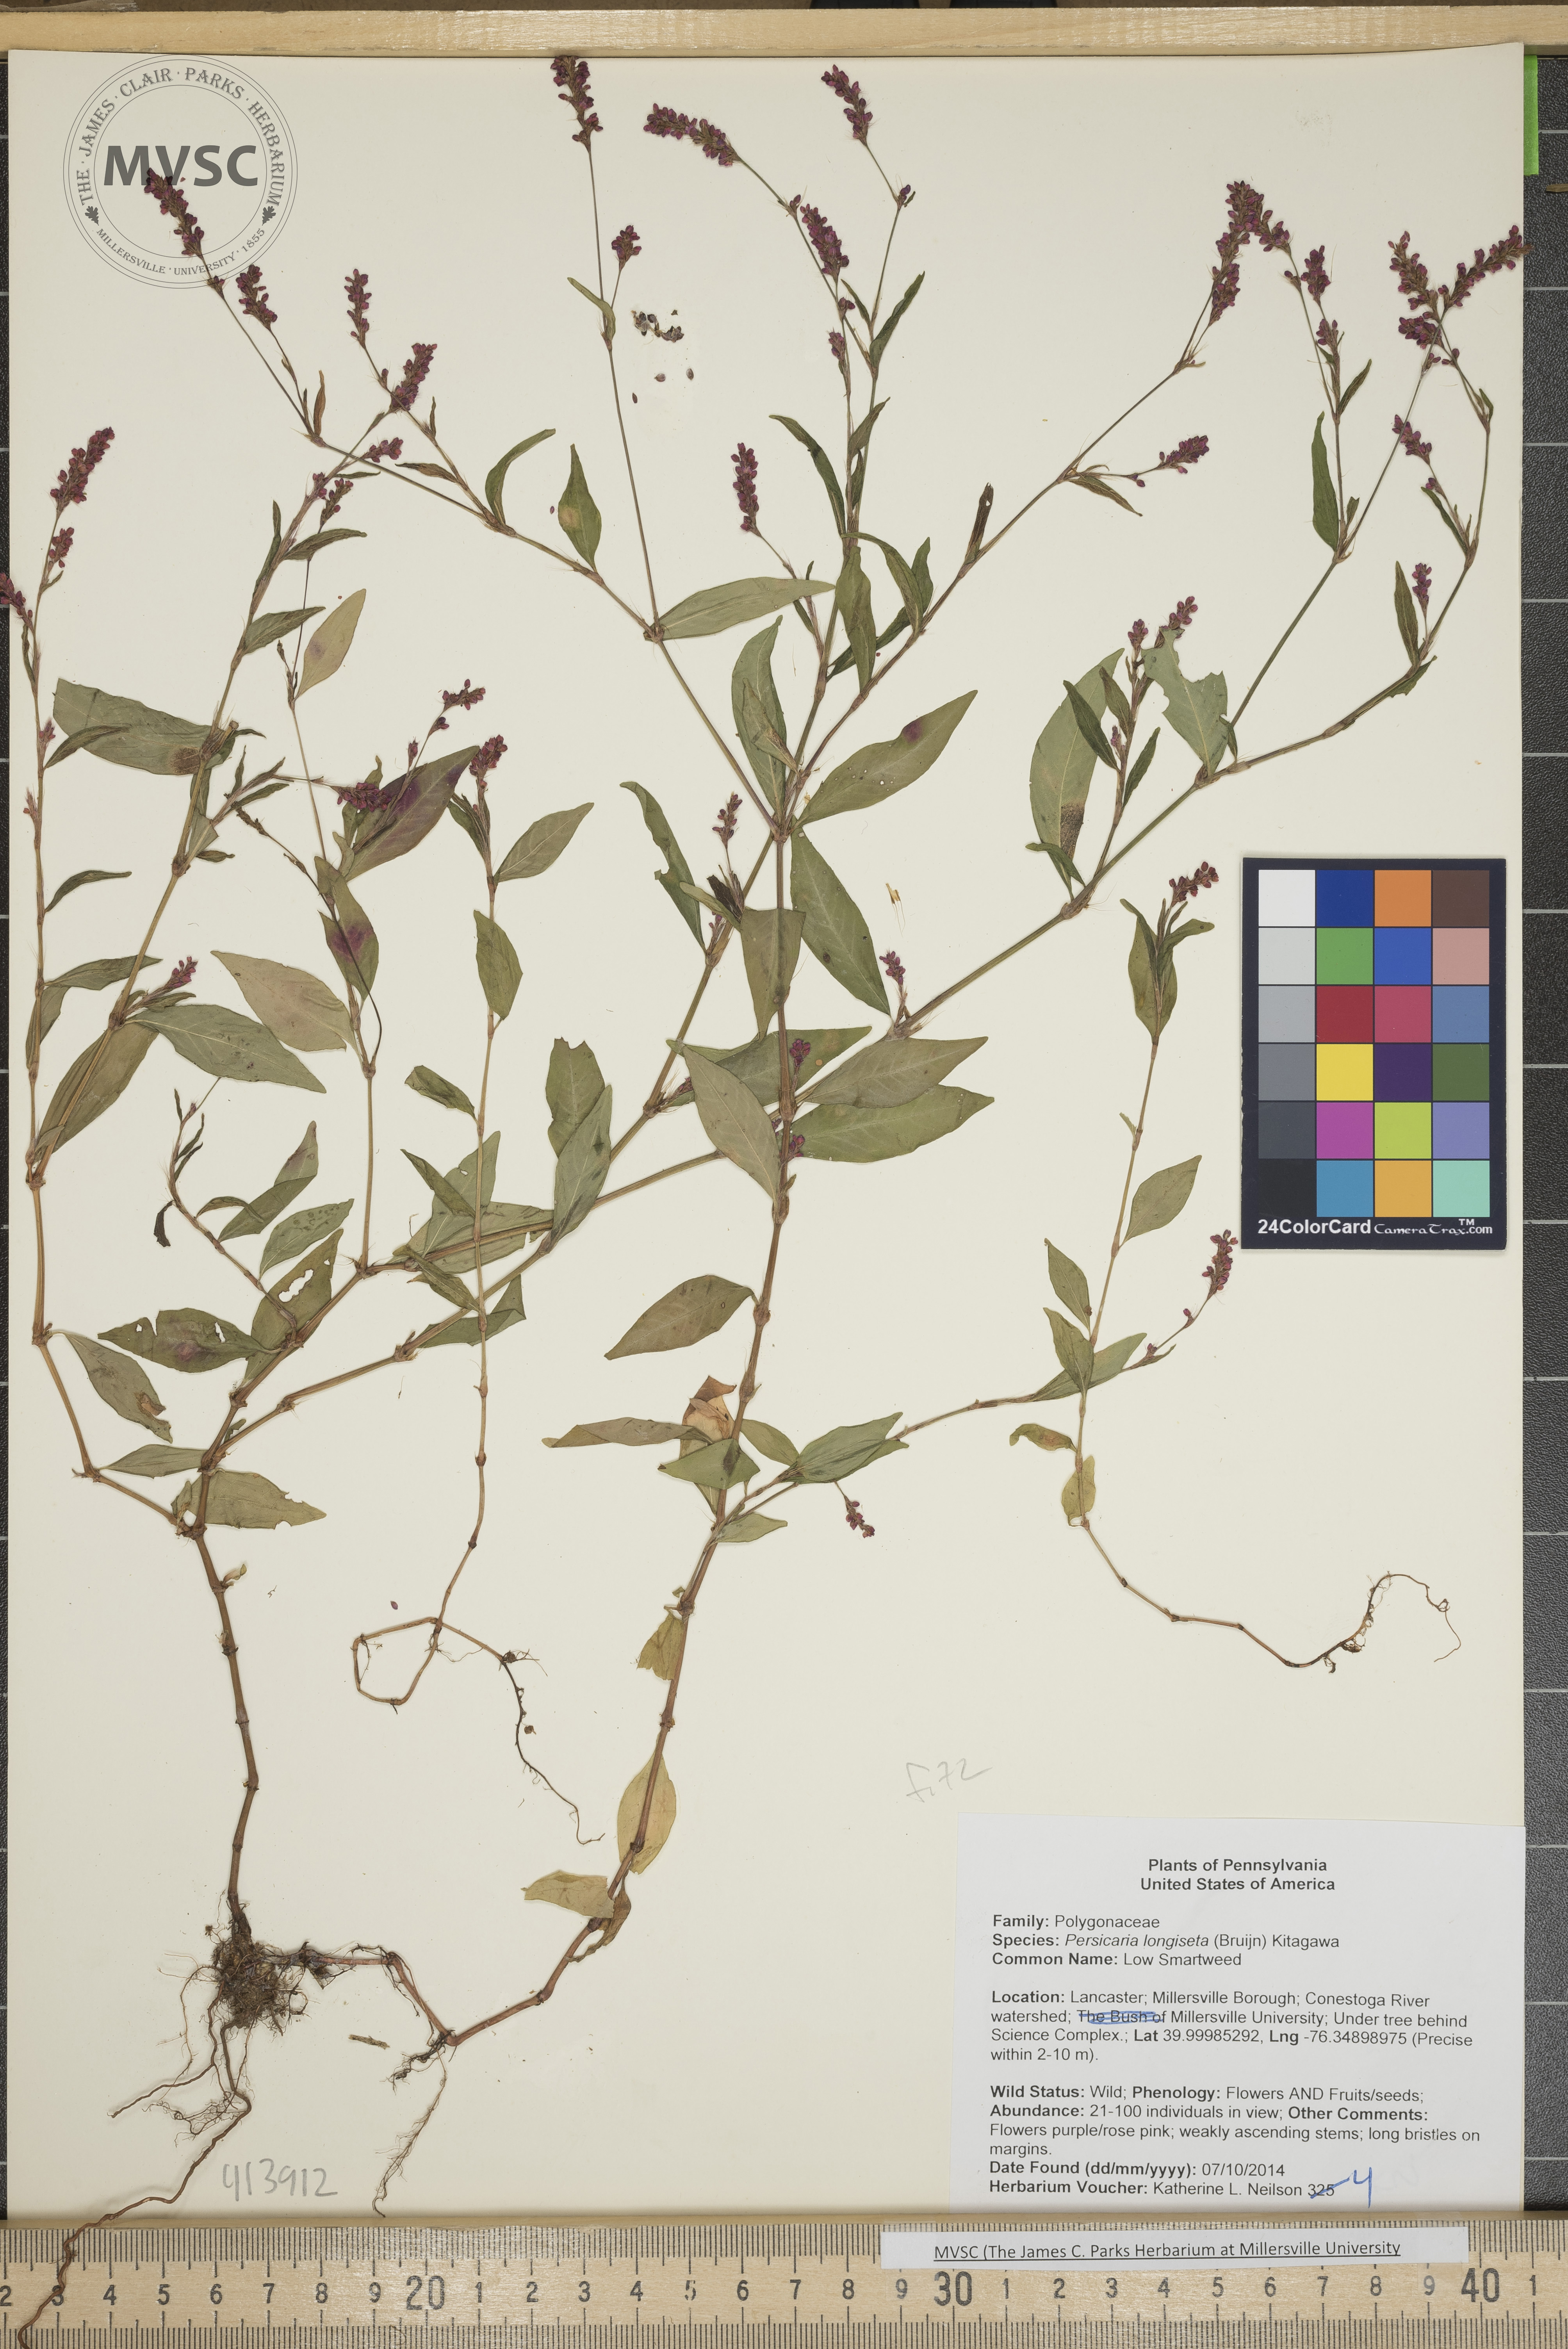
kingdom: Plantae
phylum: Tracheophyta
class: Magnoliopsida
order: Caryophyllales
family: Polygonaceae
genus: Persicaria
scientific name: Persicaria longiseta
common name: Low Smartweed
